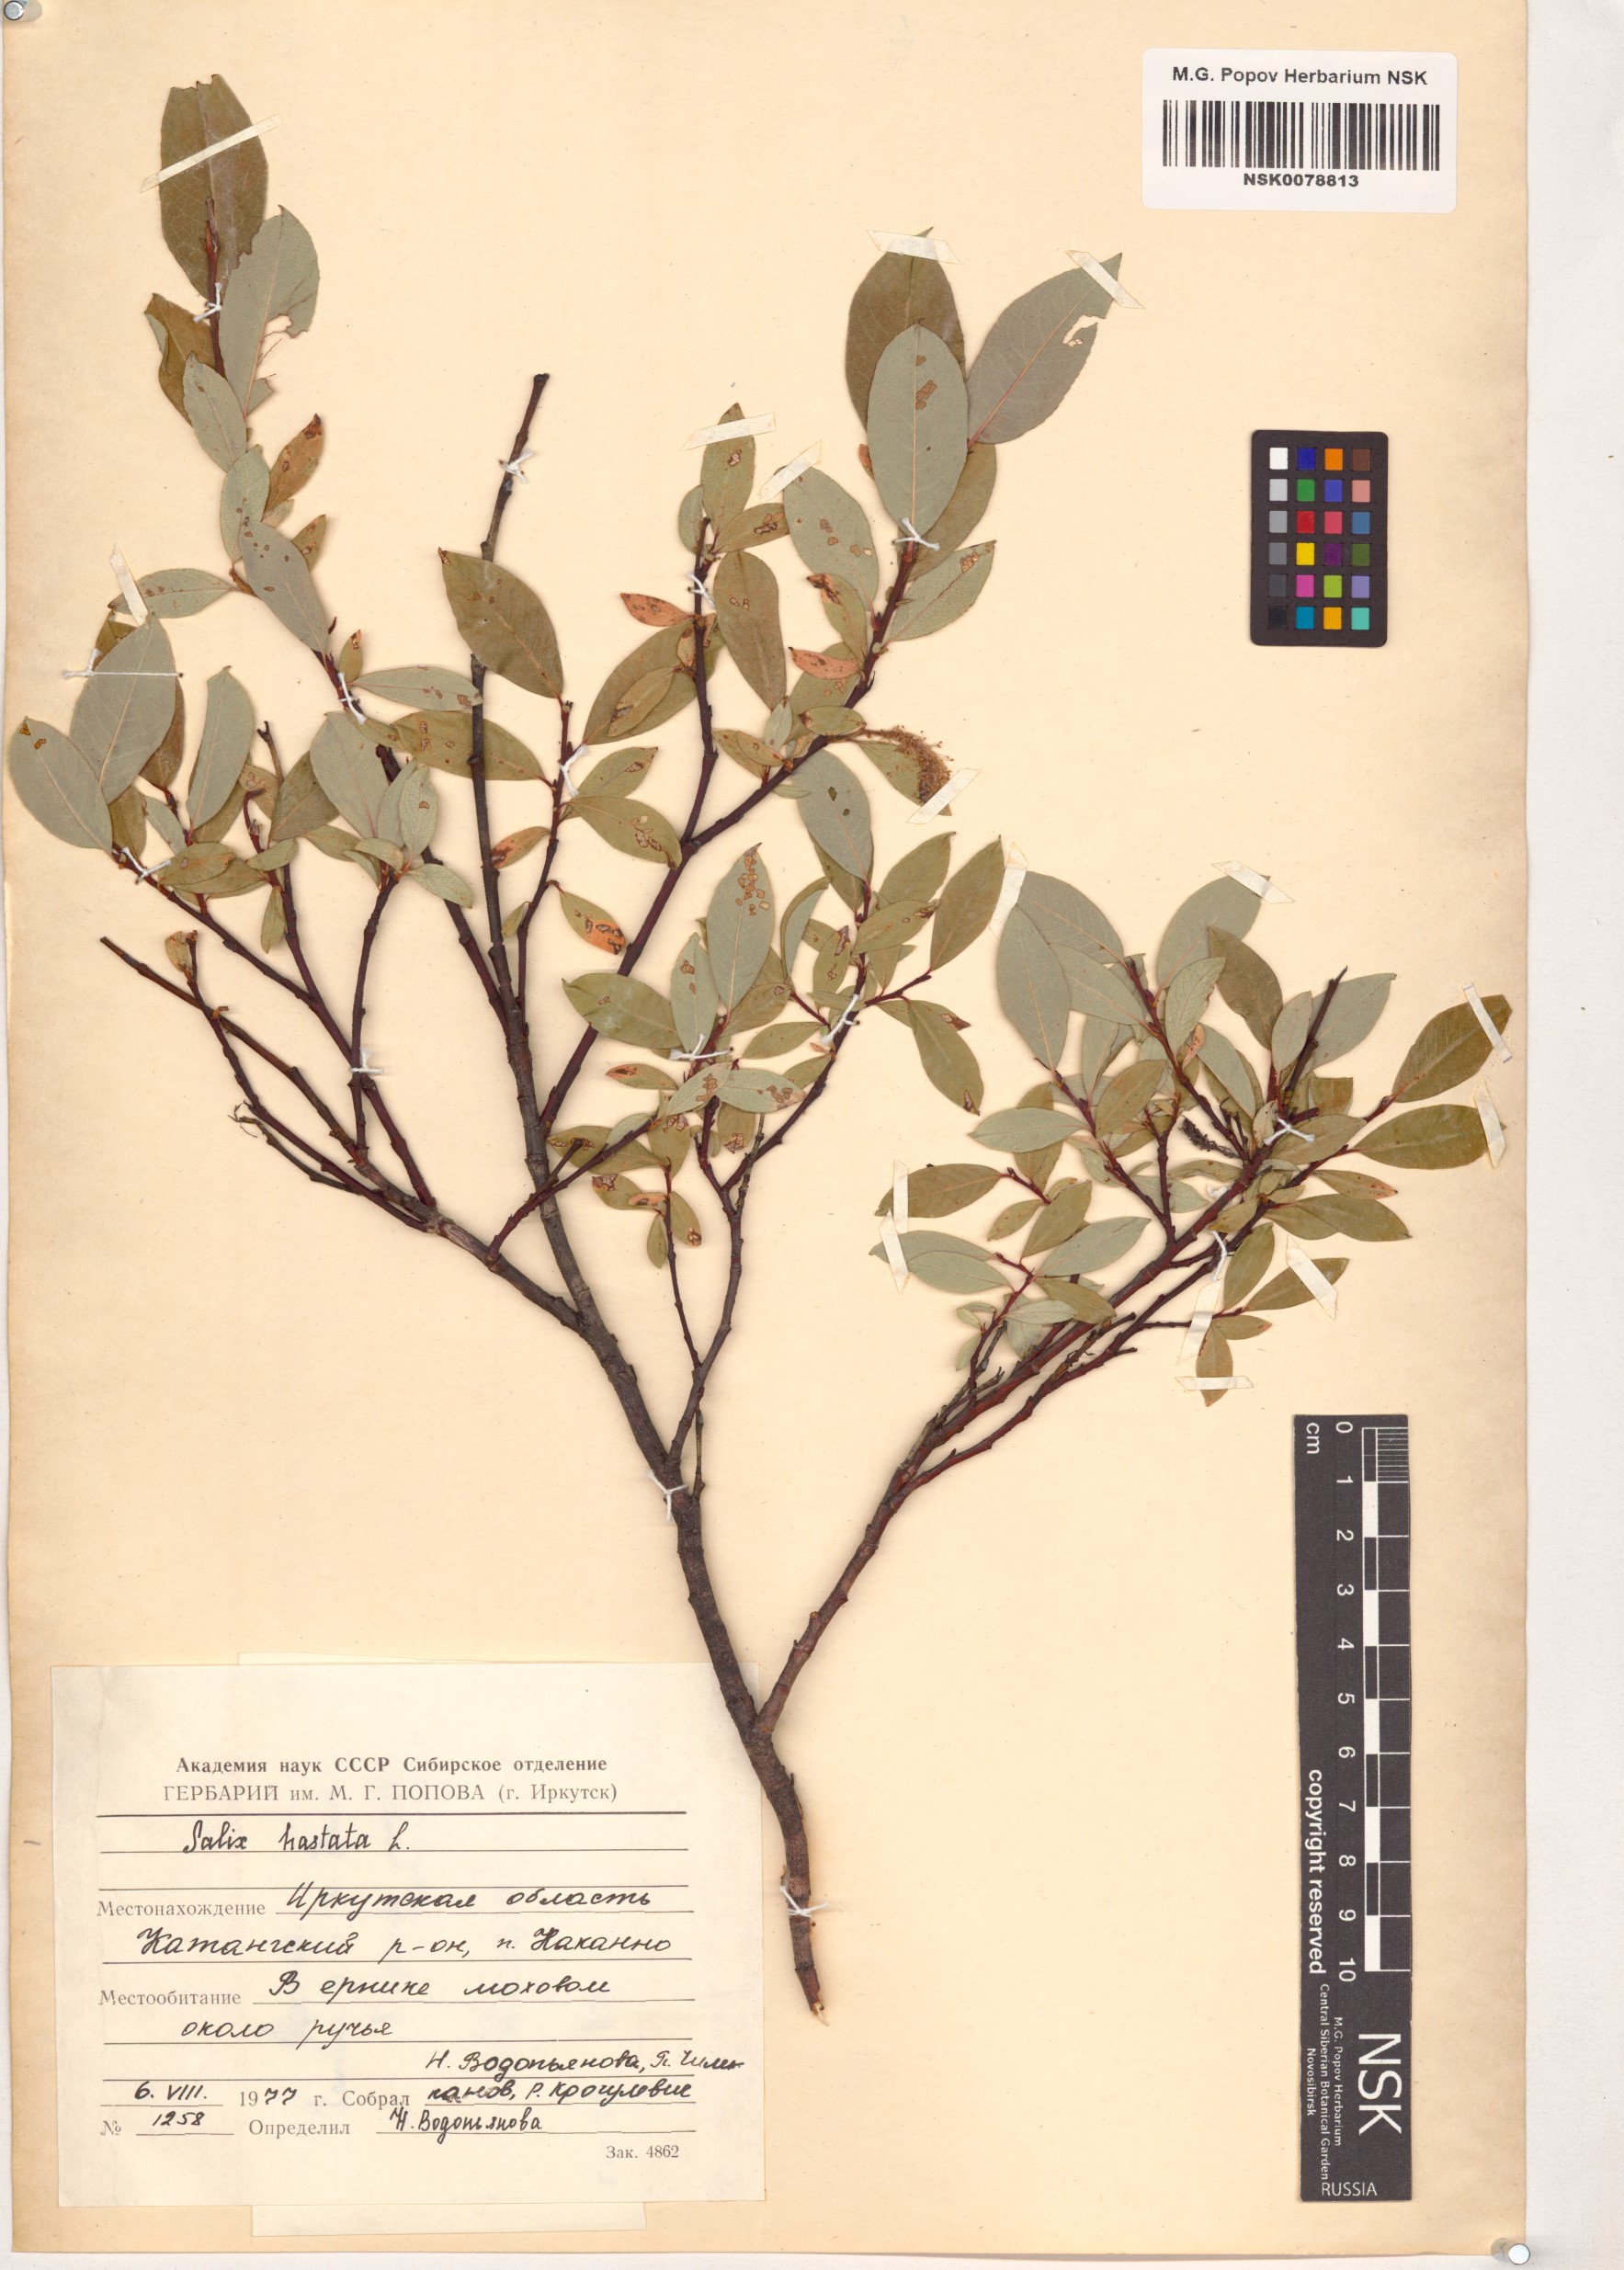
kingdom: Plantae
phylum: Tracheophyta
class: Magnoliopsida
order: Malpighiales
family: Salicaceae
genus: Salix
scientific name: Salix hastata
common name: Halberd willow
